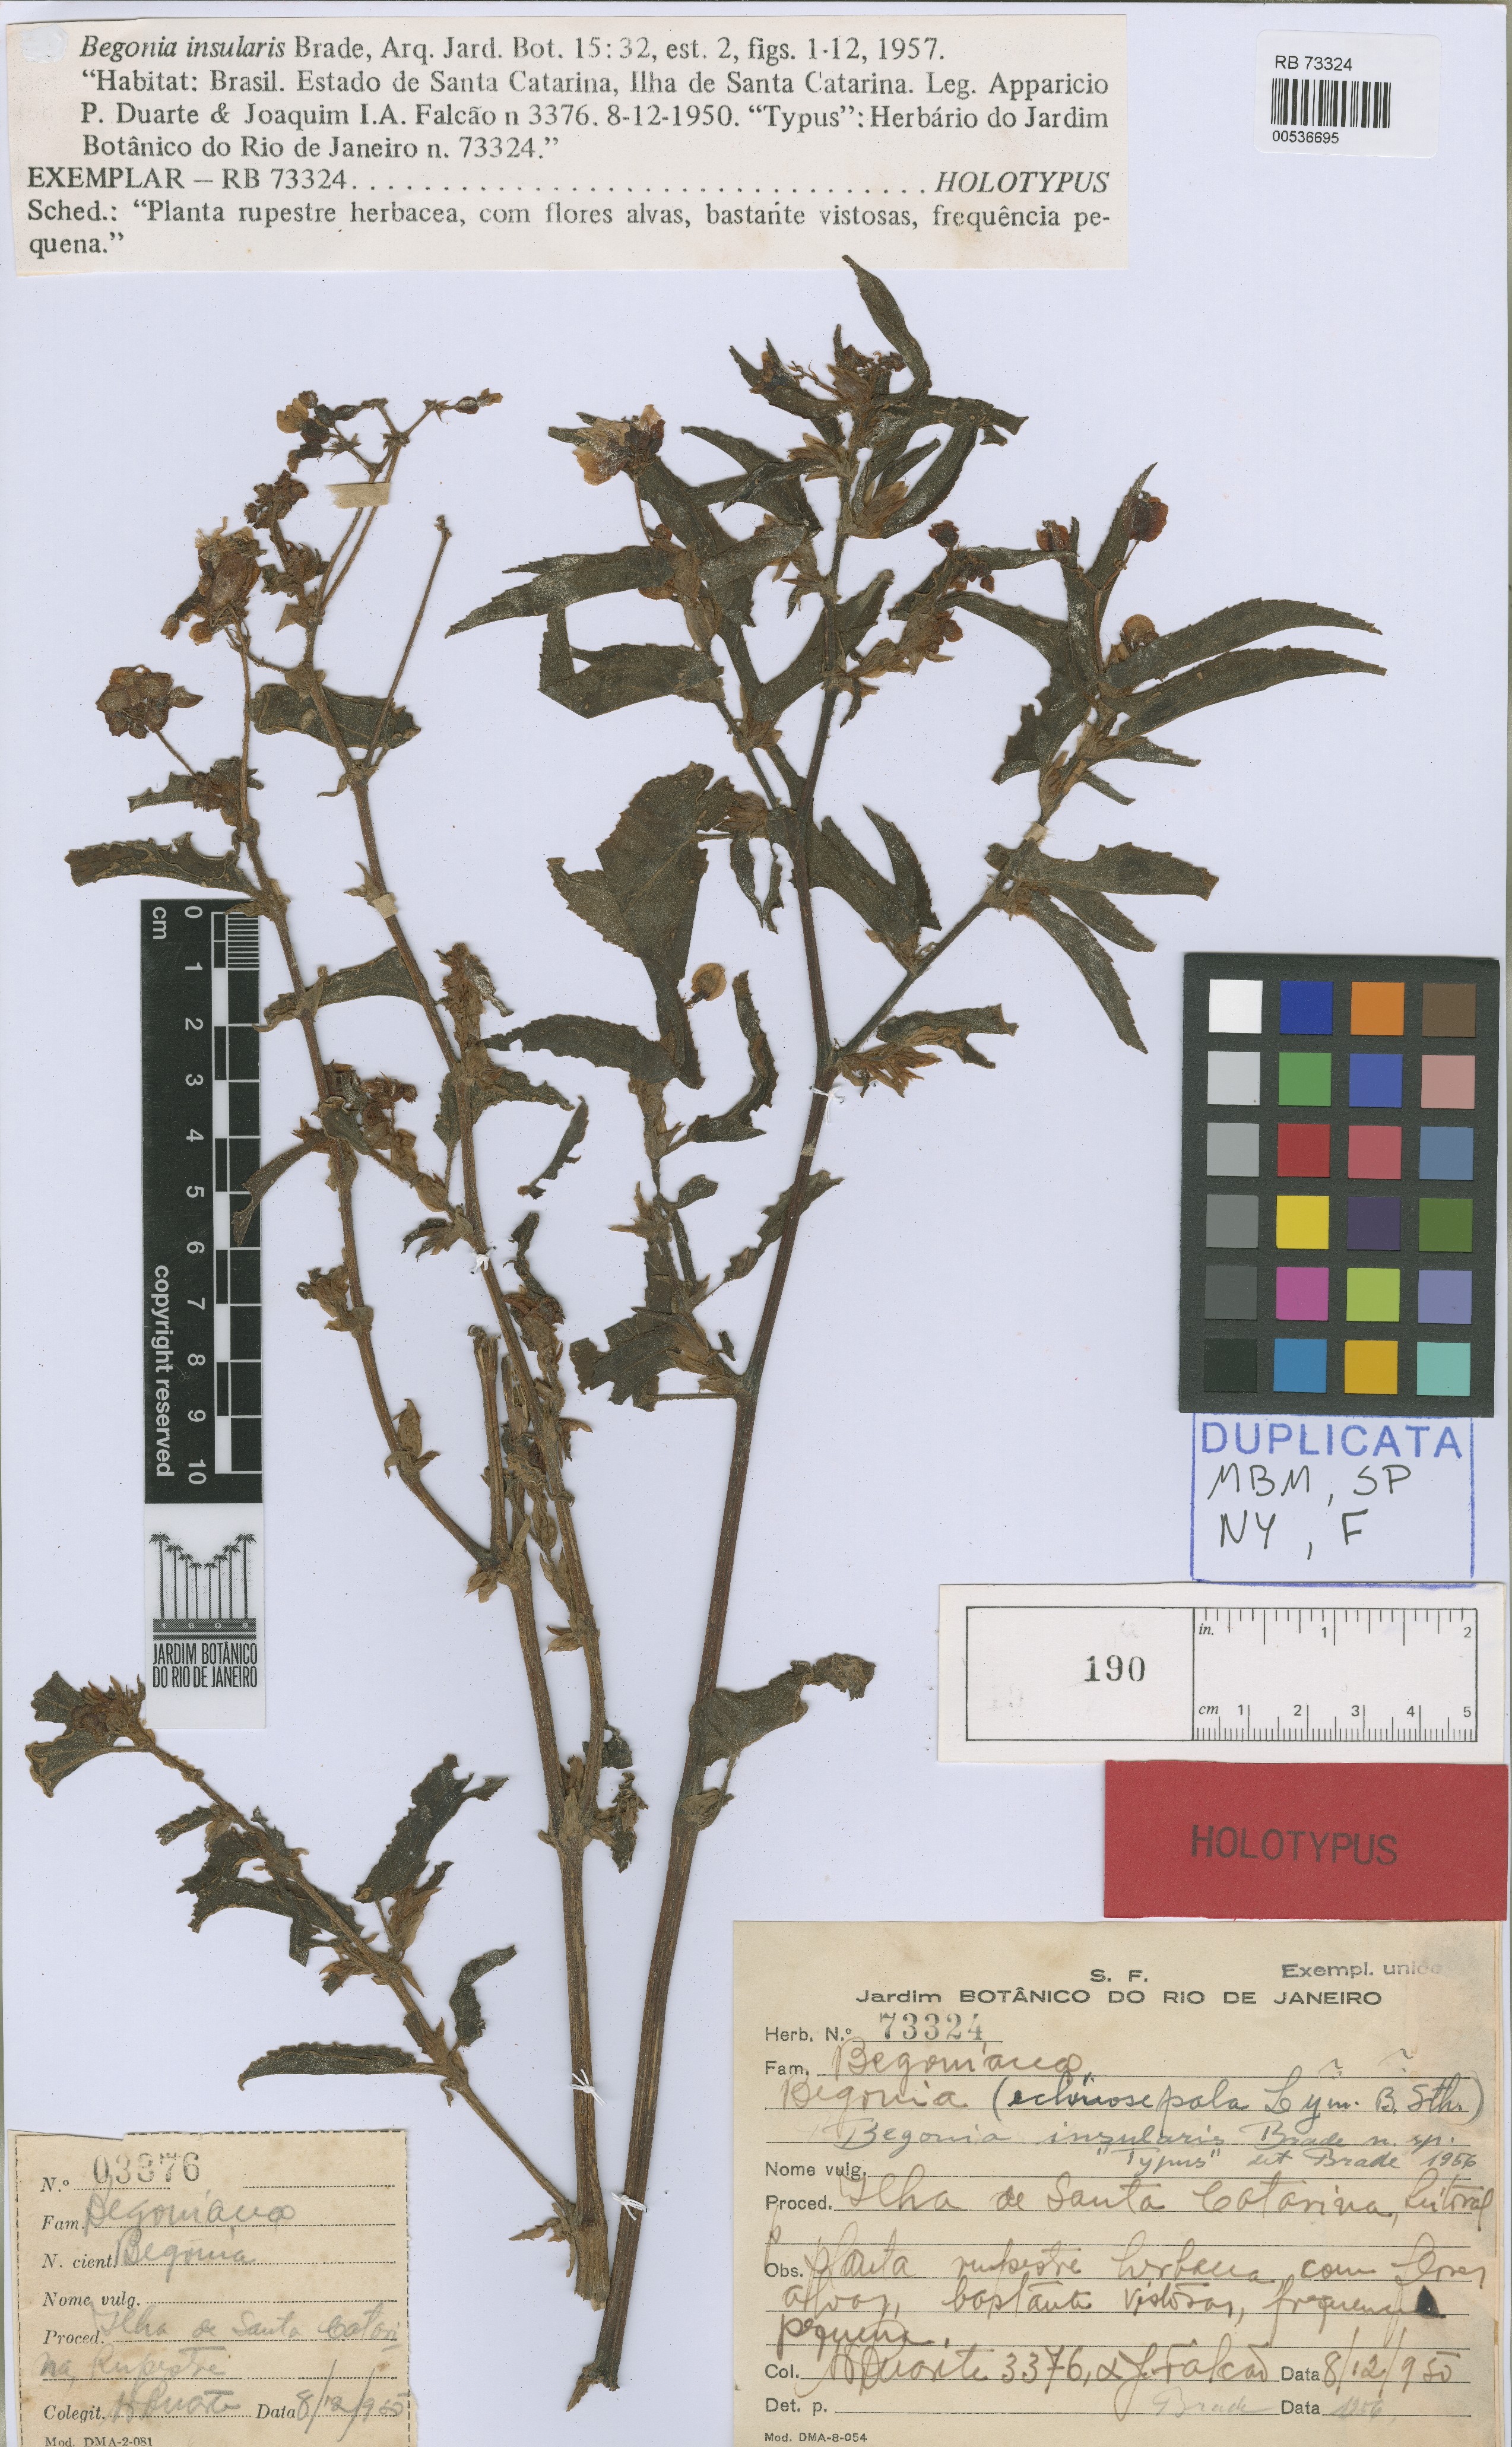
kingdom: Plantae
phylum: Tracheophyta
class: Magnoliopsida
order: Cucurbitales
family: Begoniaceae
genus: Begonia
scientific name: Begonia insularis
